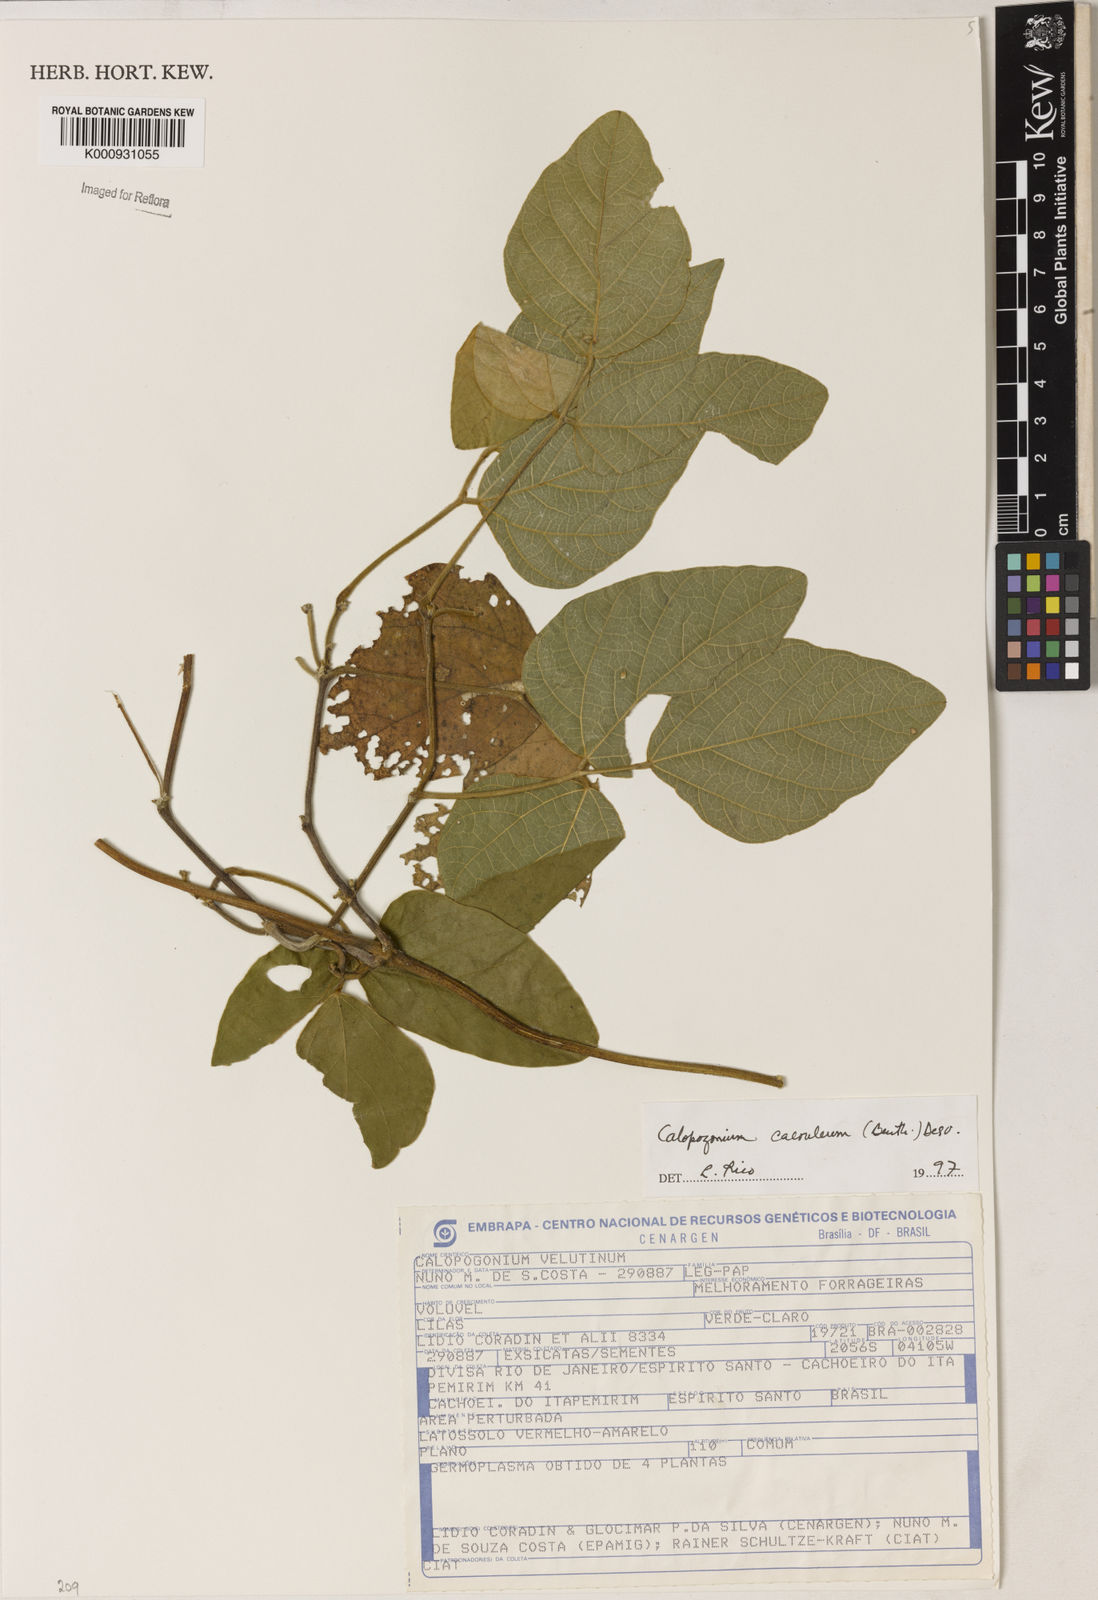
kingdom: Plantae
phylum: Tracheophyta
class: Magnoliopsida
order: Fabales
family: Fabaceae
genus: Calopogonium
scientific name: Calopogonium caeruleum
